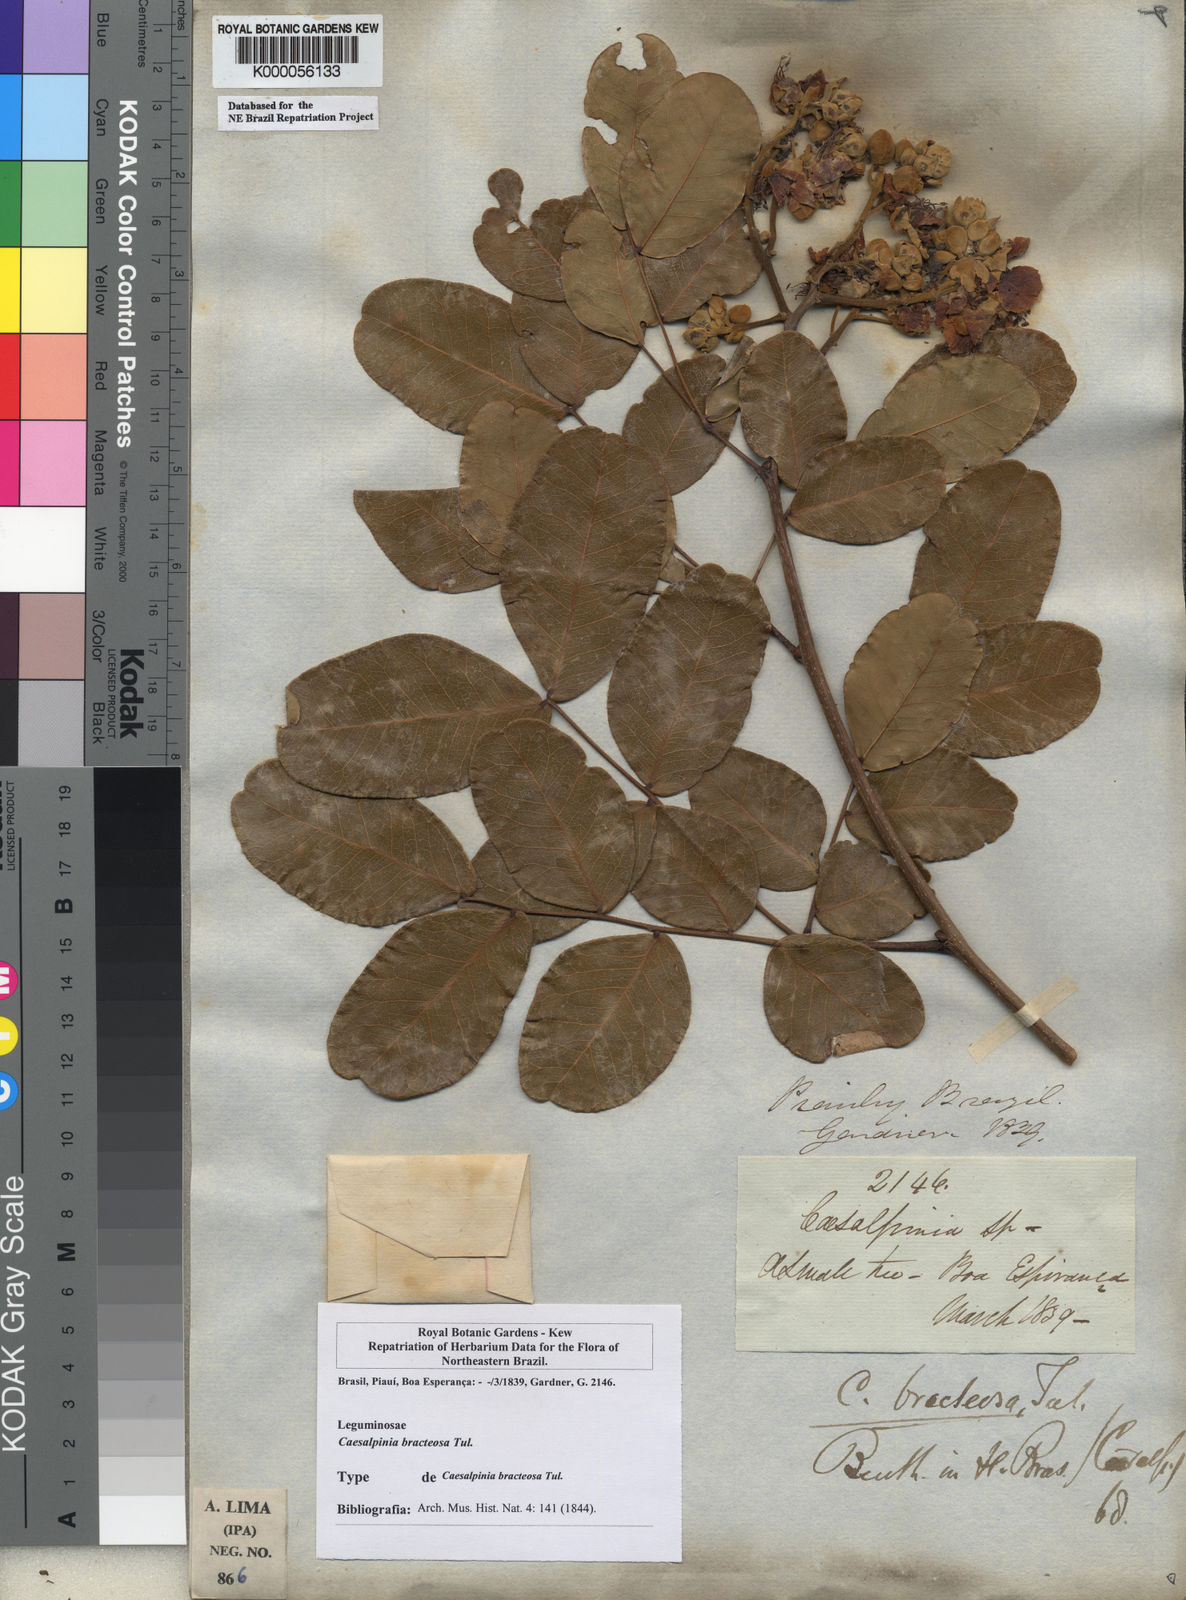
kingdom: Plantae
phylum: Tracheophyta
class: Magnoliopsida
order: Fabales
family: Fabaceae
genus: Cenostigma
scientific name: Cenostigma bracteosum
